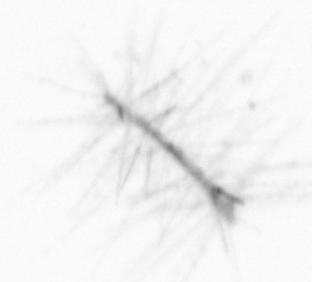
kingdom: Chromista
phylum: Ochrophyta
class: Bacillariophyceae
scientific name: Bacillariophyceae
